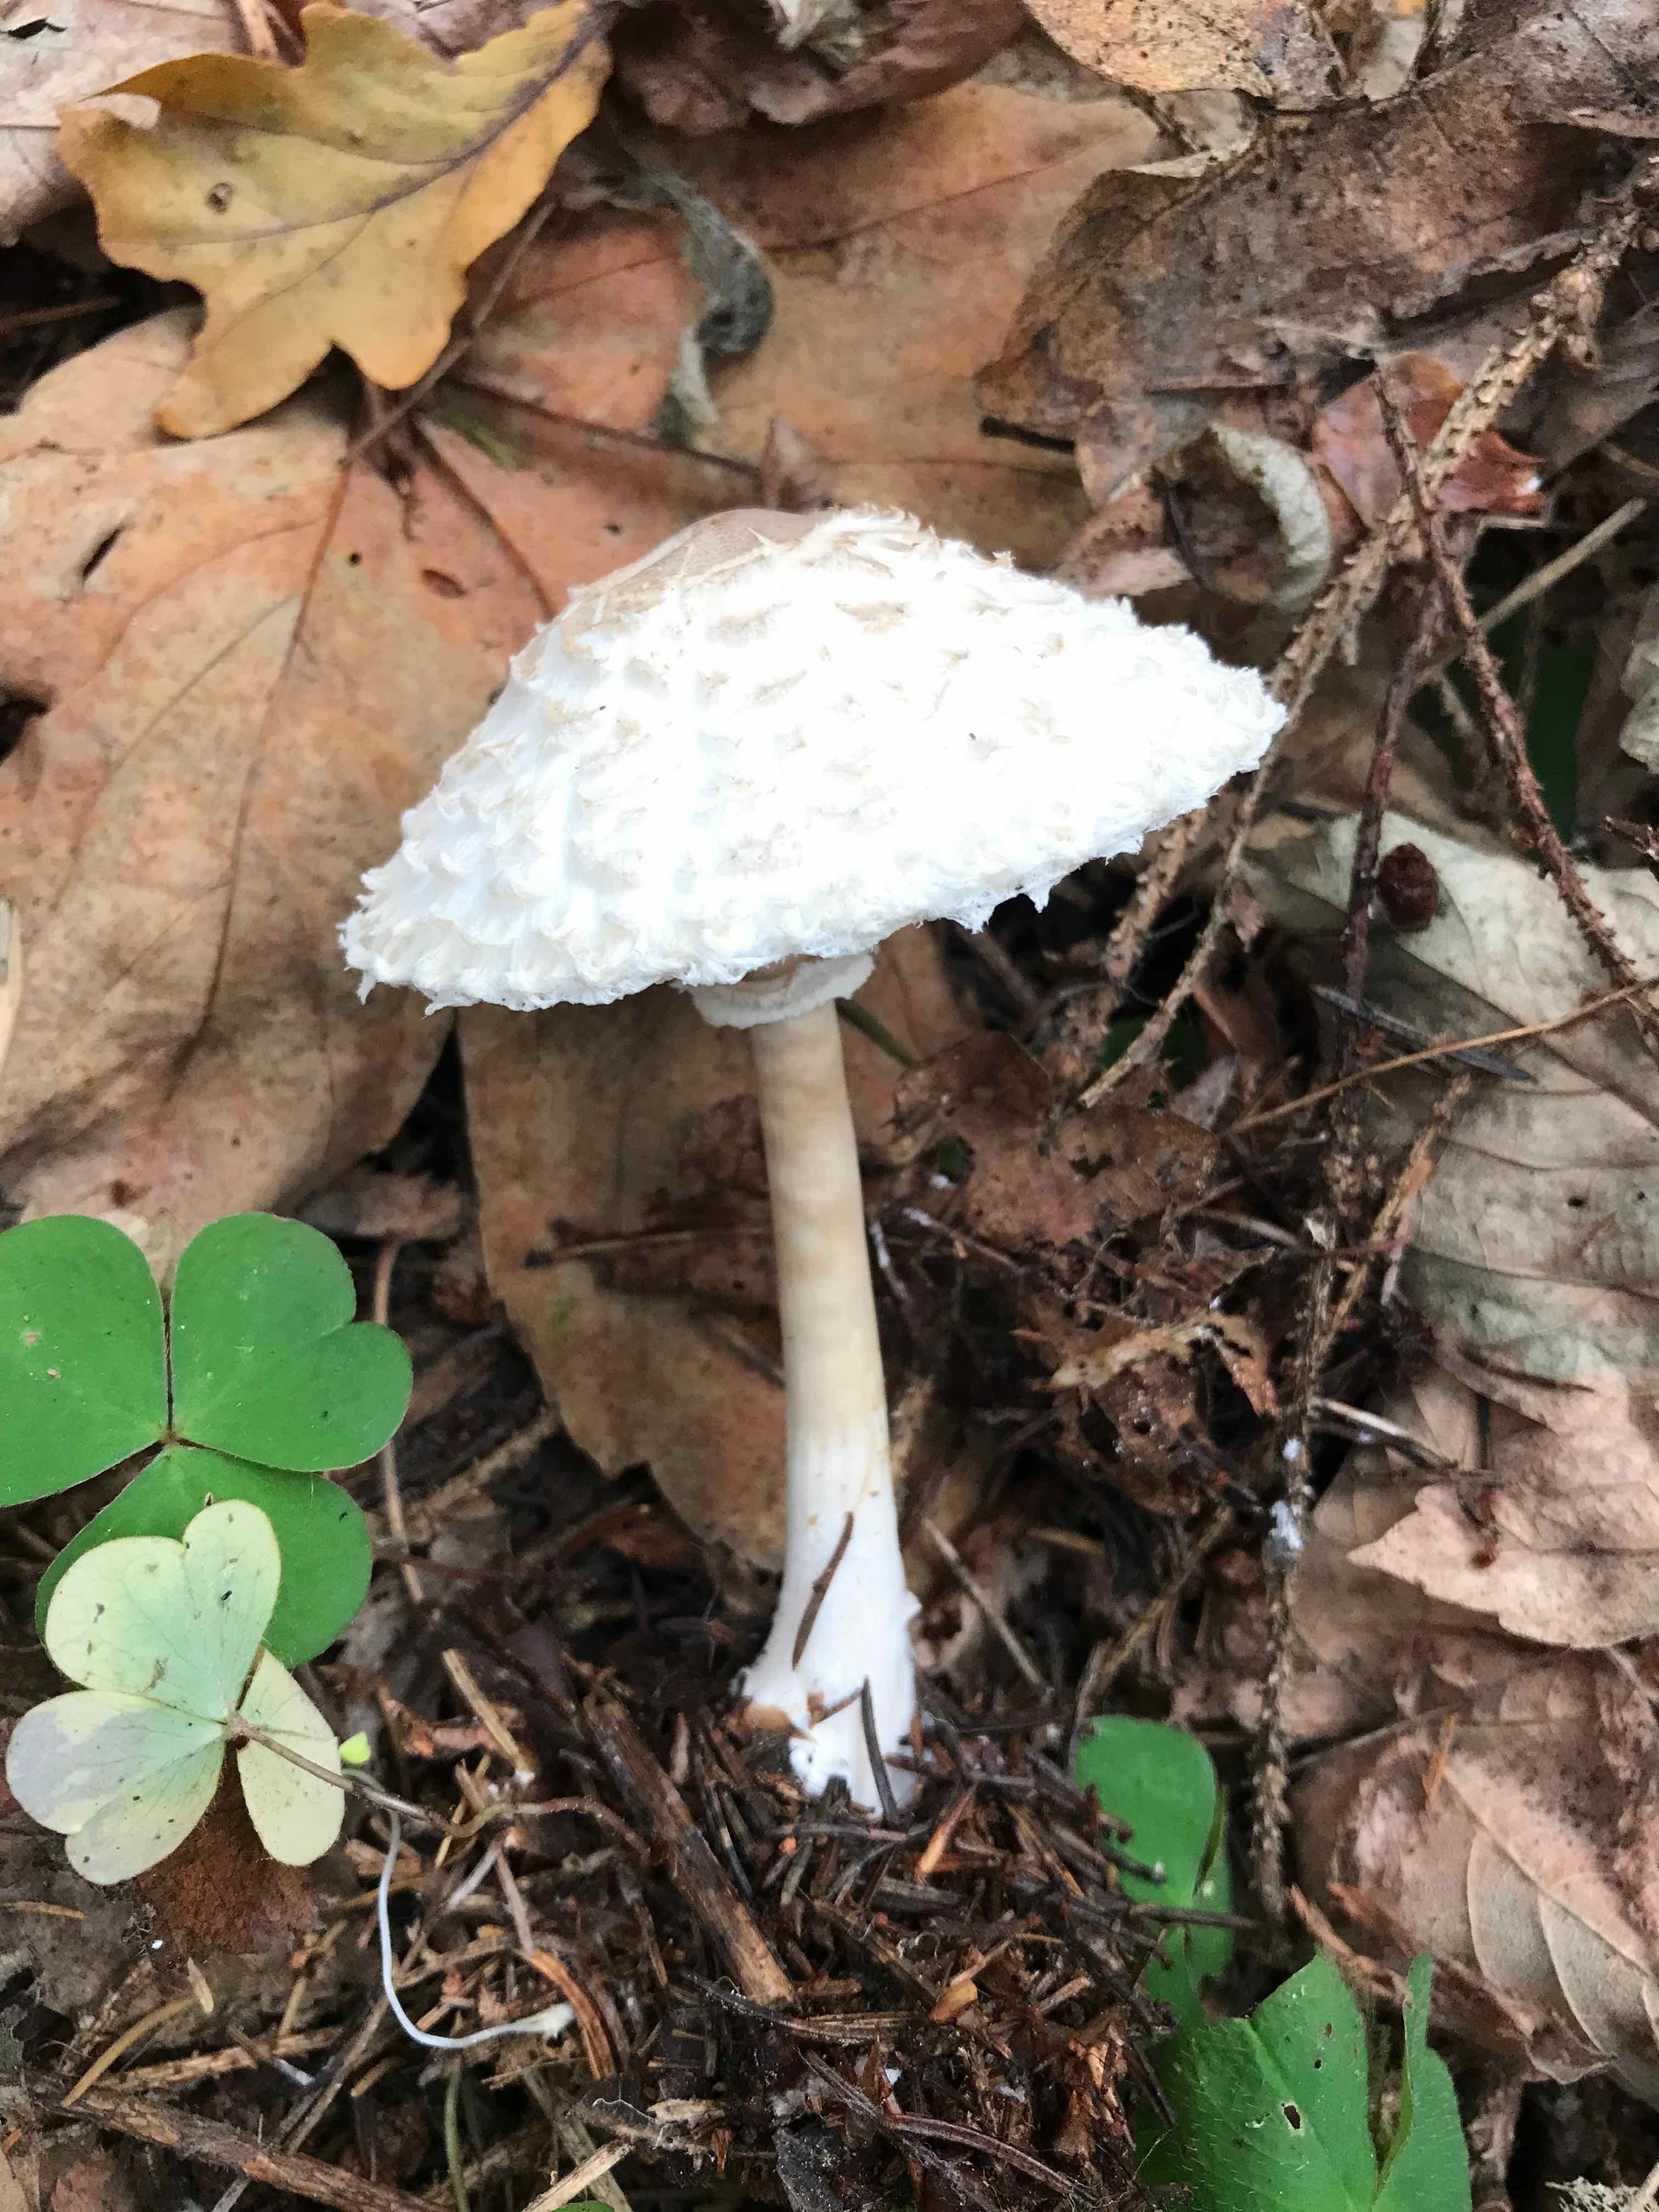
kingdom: Fungi
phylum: Basidiomycota
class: Agaricomycetes
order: Agaricales
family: Agaricaceae
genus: Leucoagaricus
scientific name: Leucoagaricus nympharum
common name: gran-silkehat
